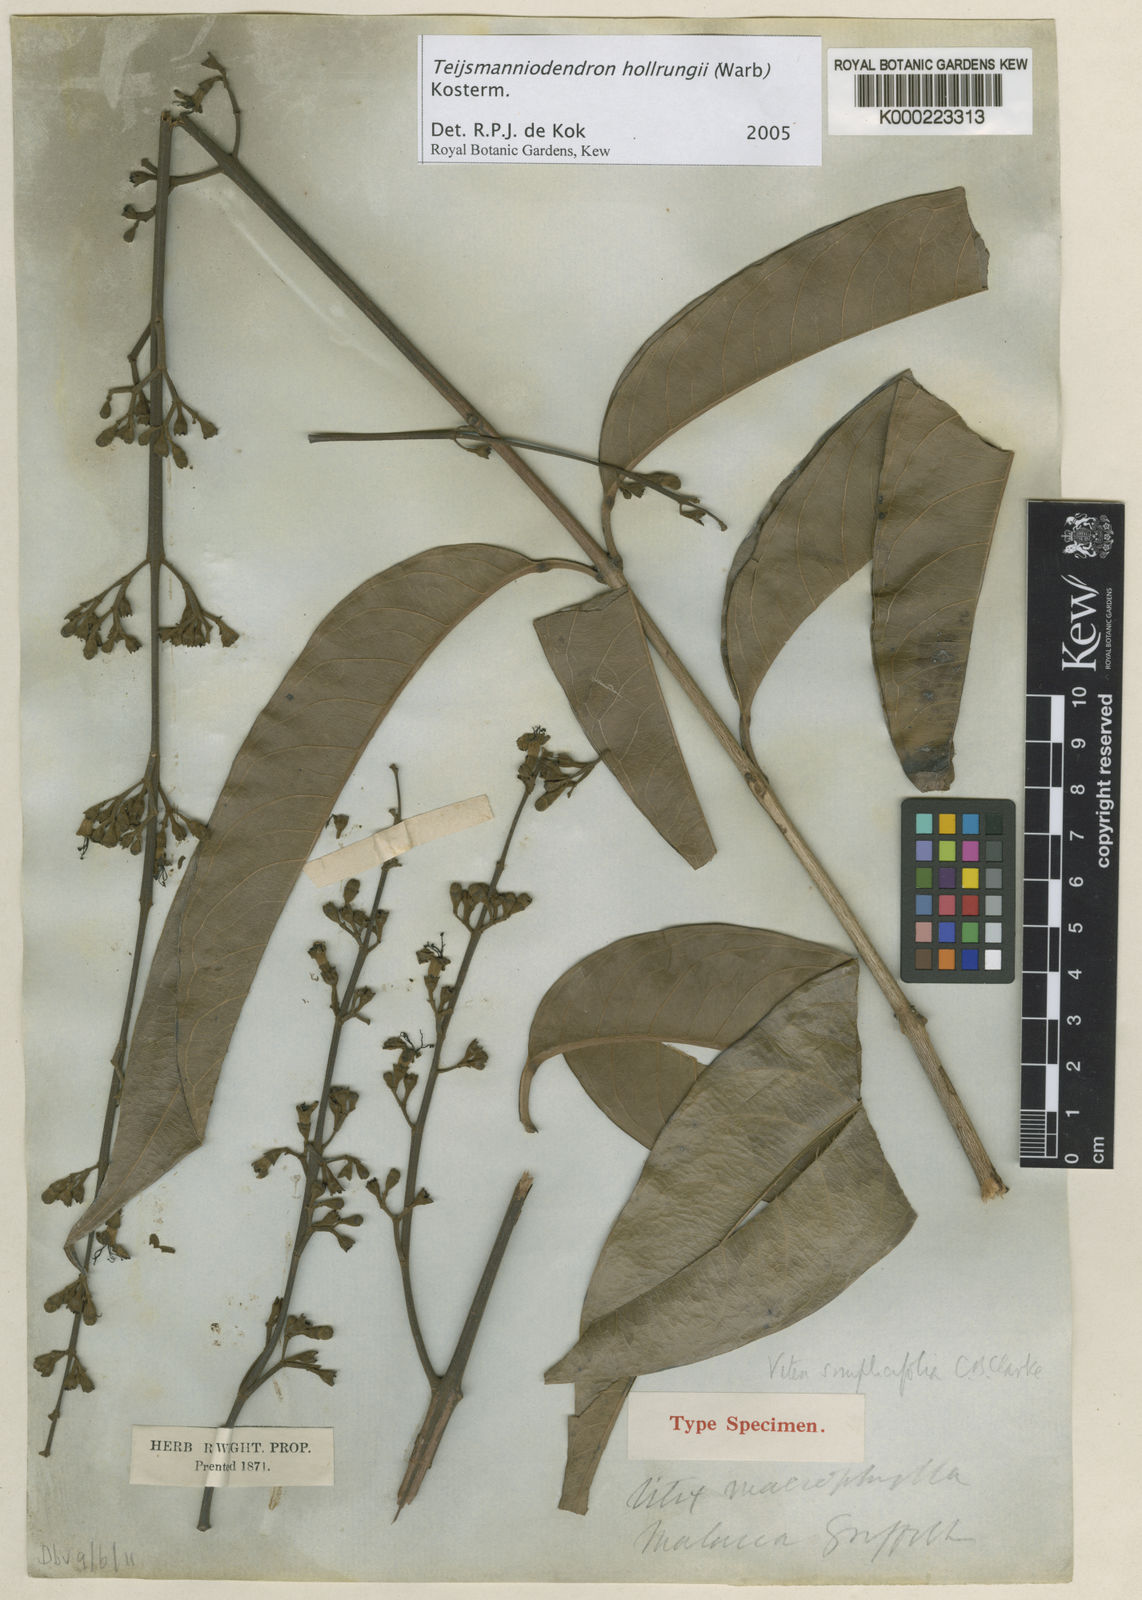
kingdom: Plantae
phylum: Tracheophyta
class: Magnoliopsida
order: Lamiales
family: Lamiaceae
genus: Teijsmanniodendron
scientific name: Teijsmanniodendron hollrungii
